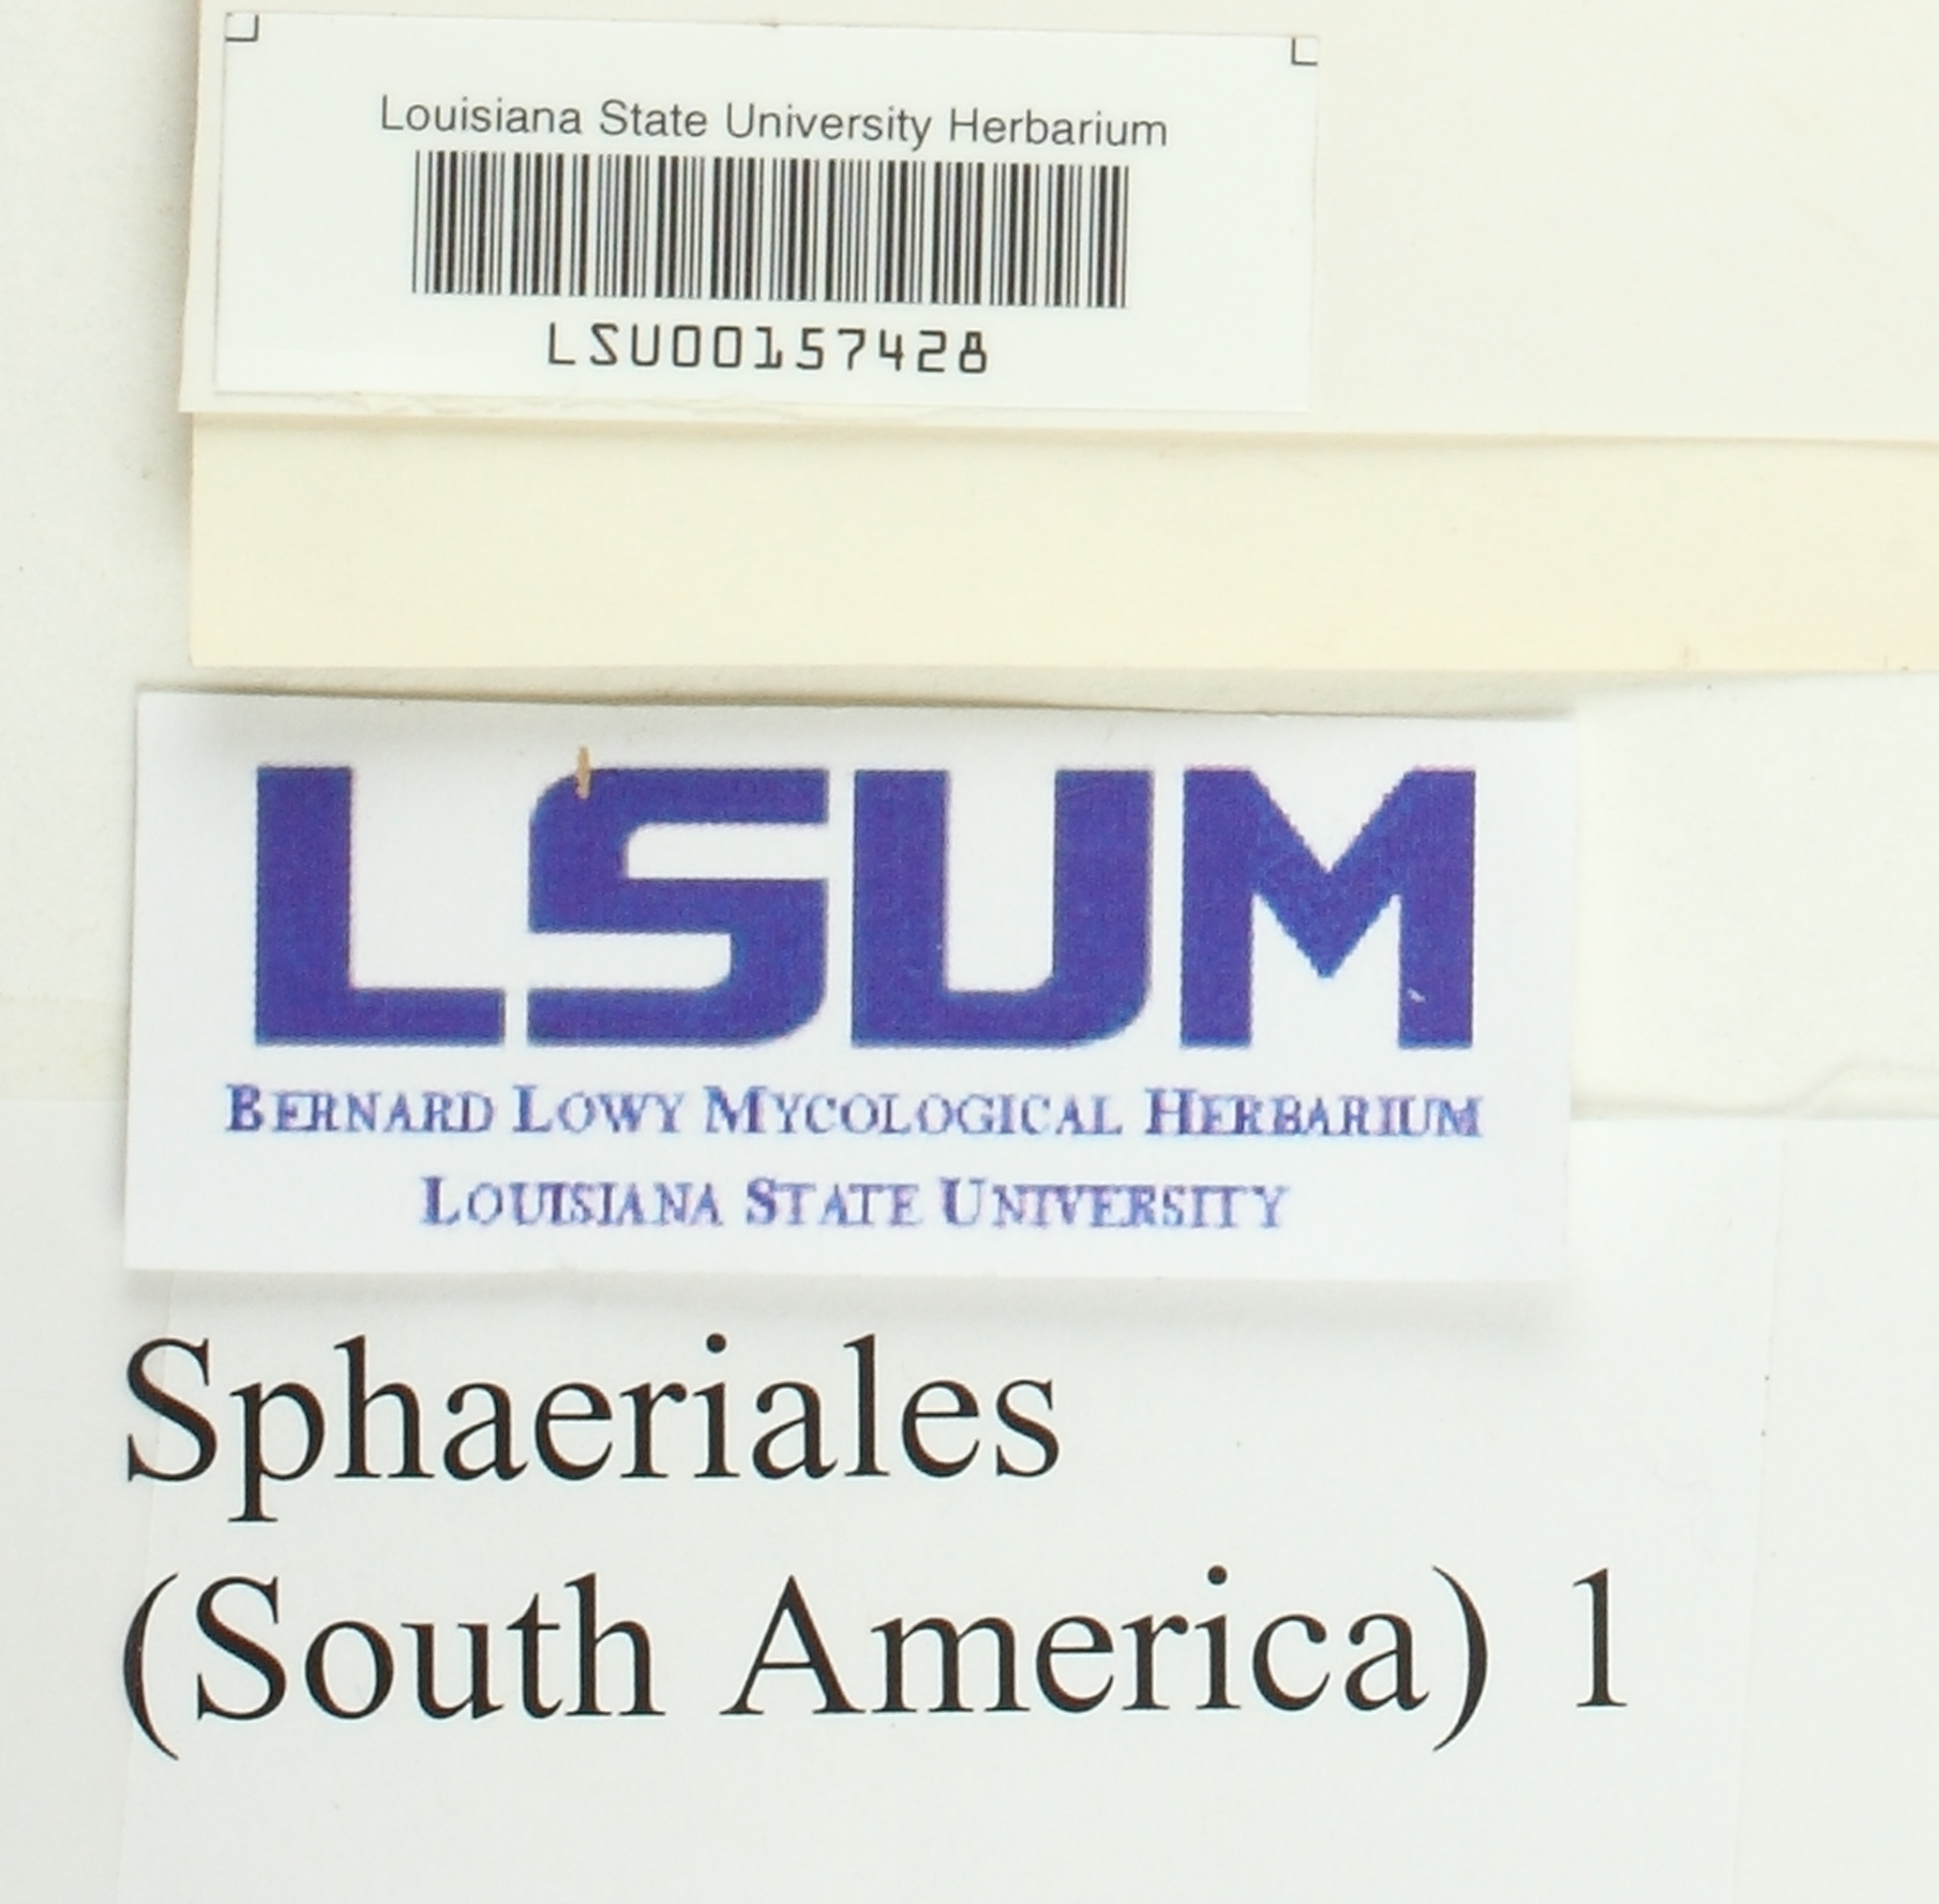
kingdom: Fungi
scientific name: Fungi
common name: Fungi
